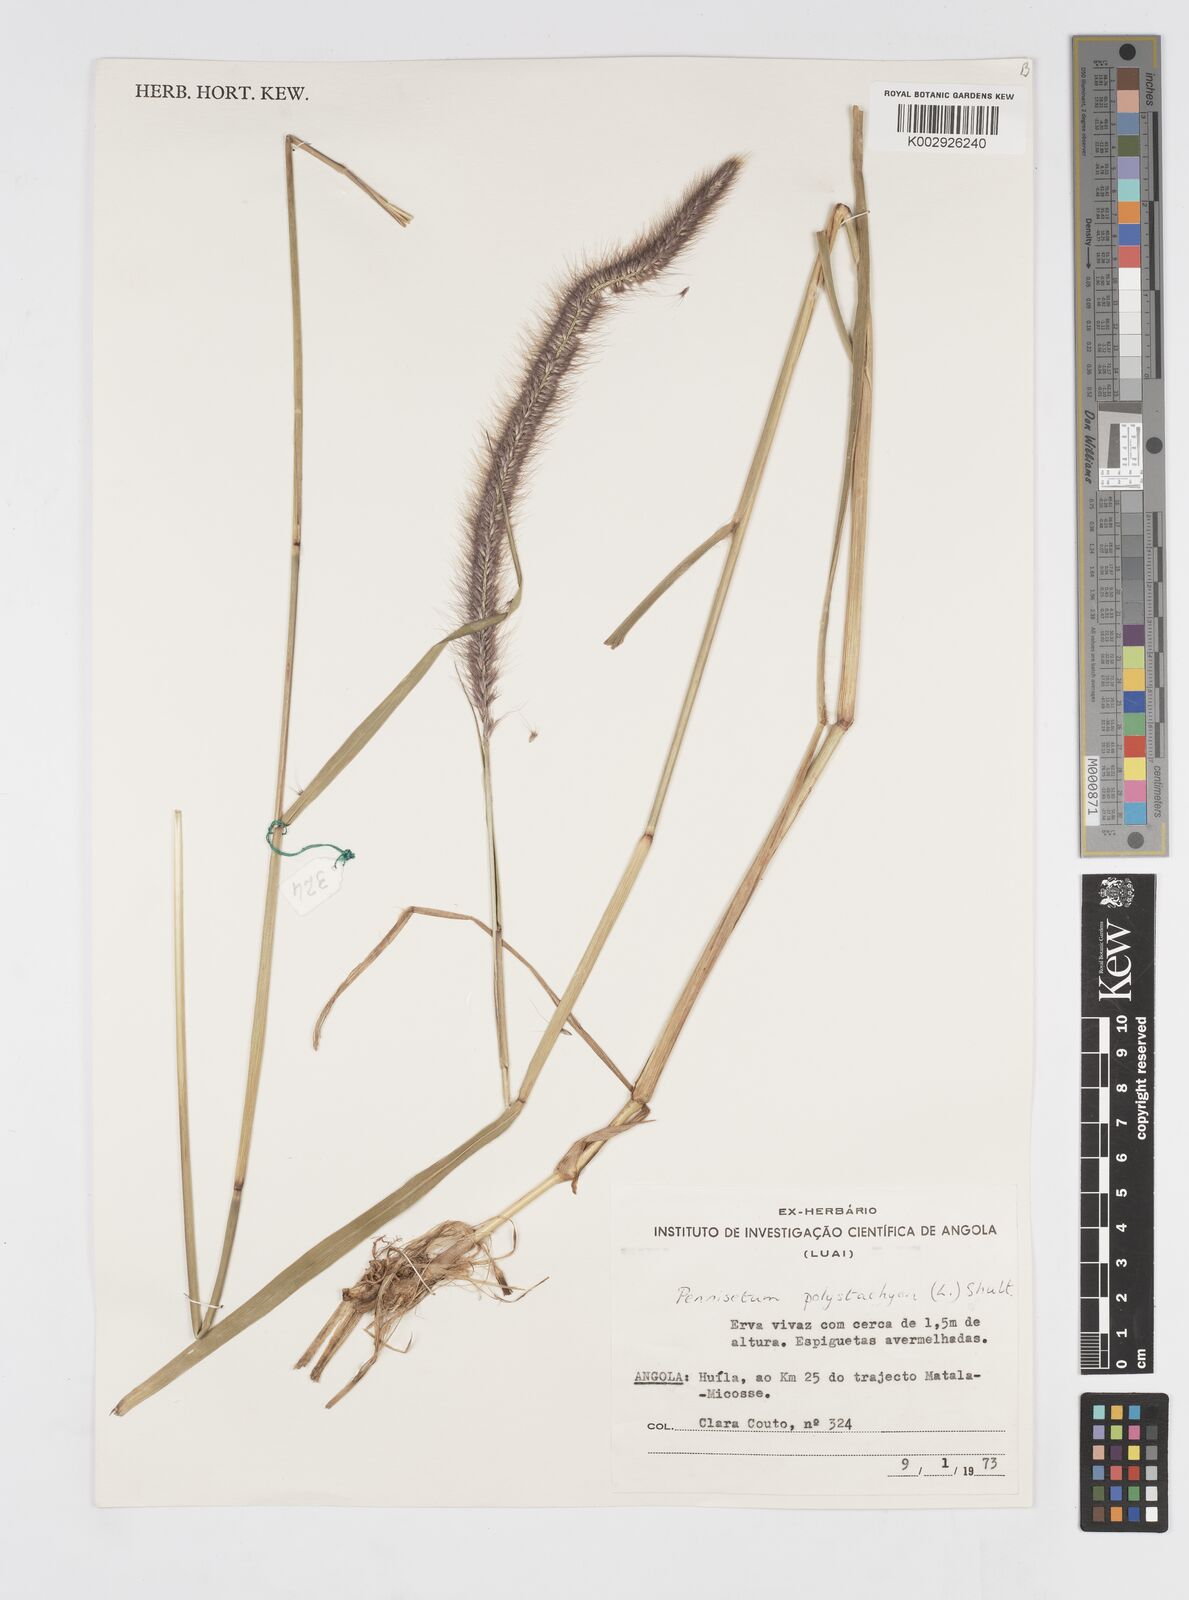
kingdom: Plantae
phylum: Tracheophyta
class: Liliopsida
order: Poales
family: Poaceae
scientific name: Poaceae
